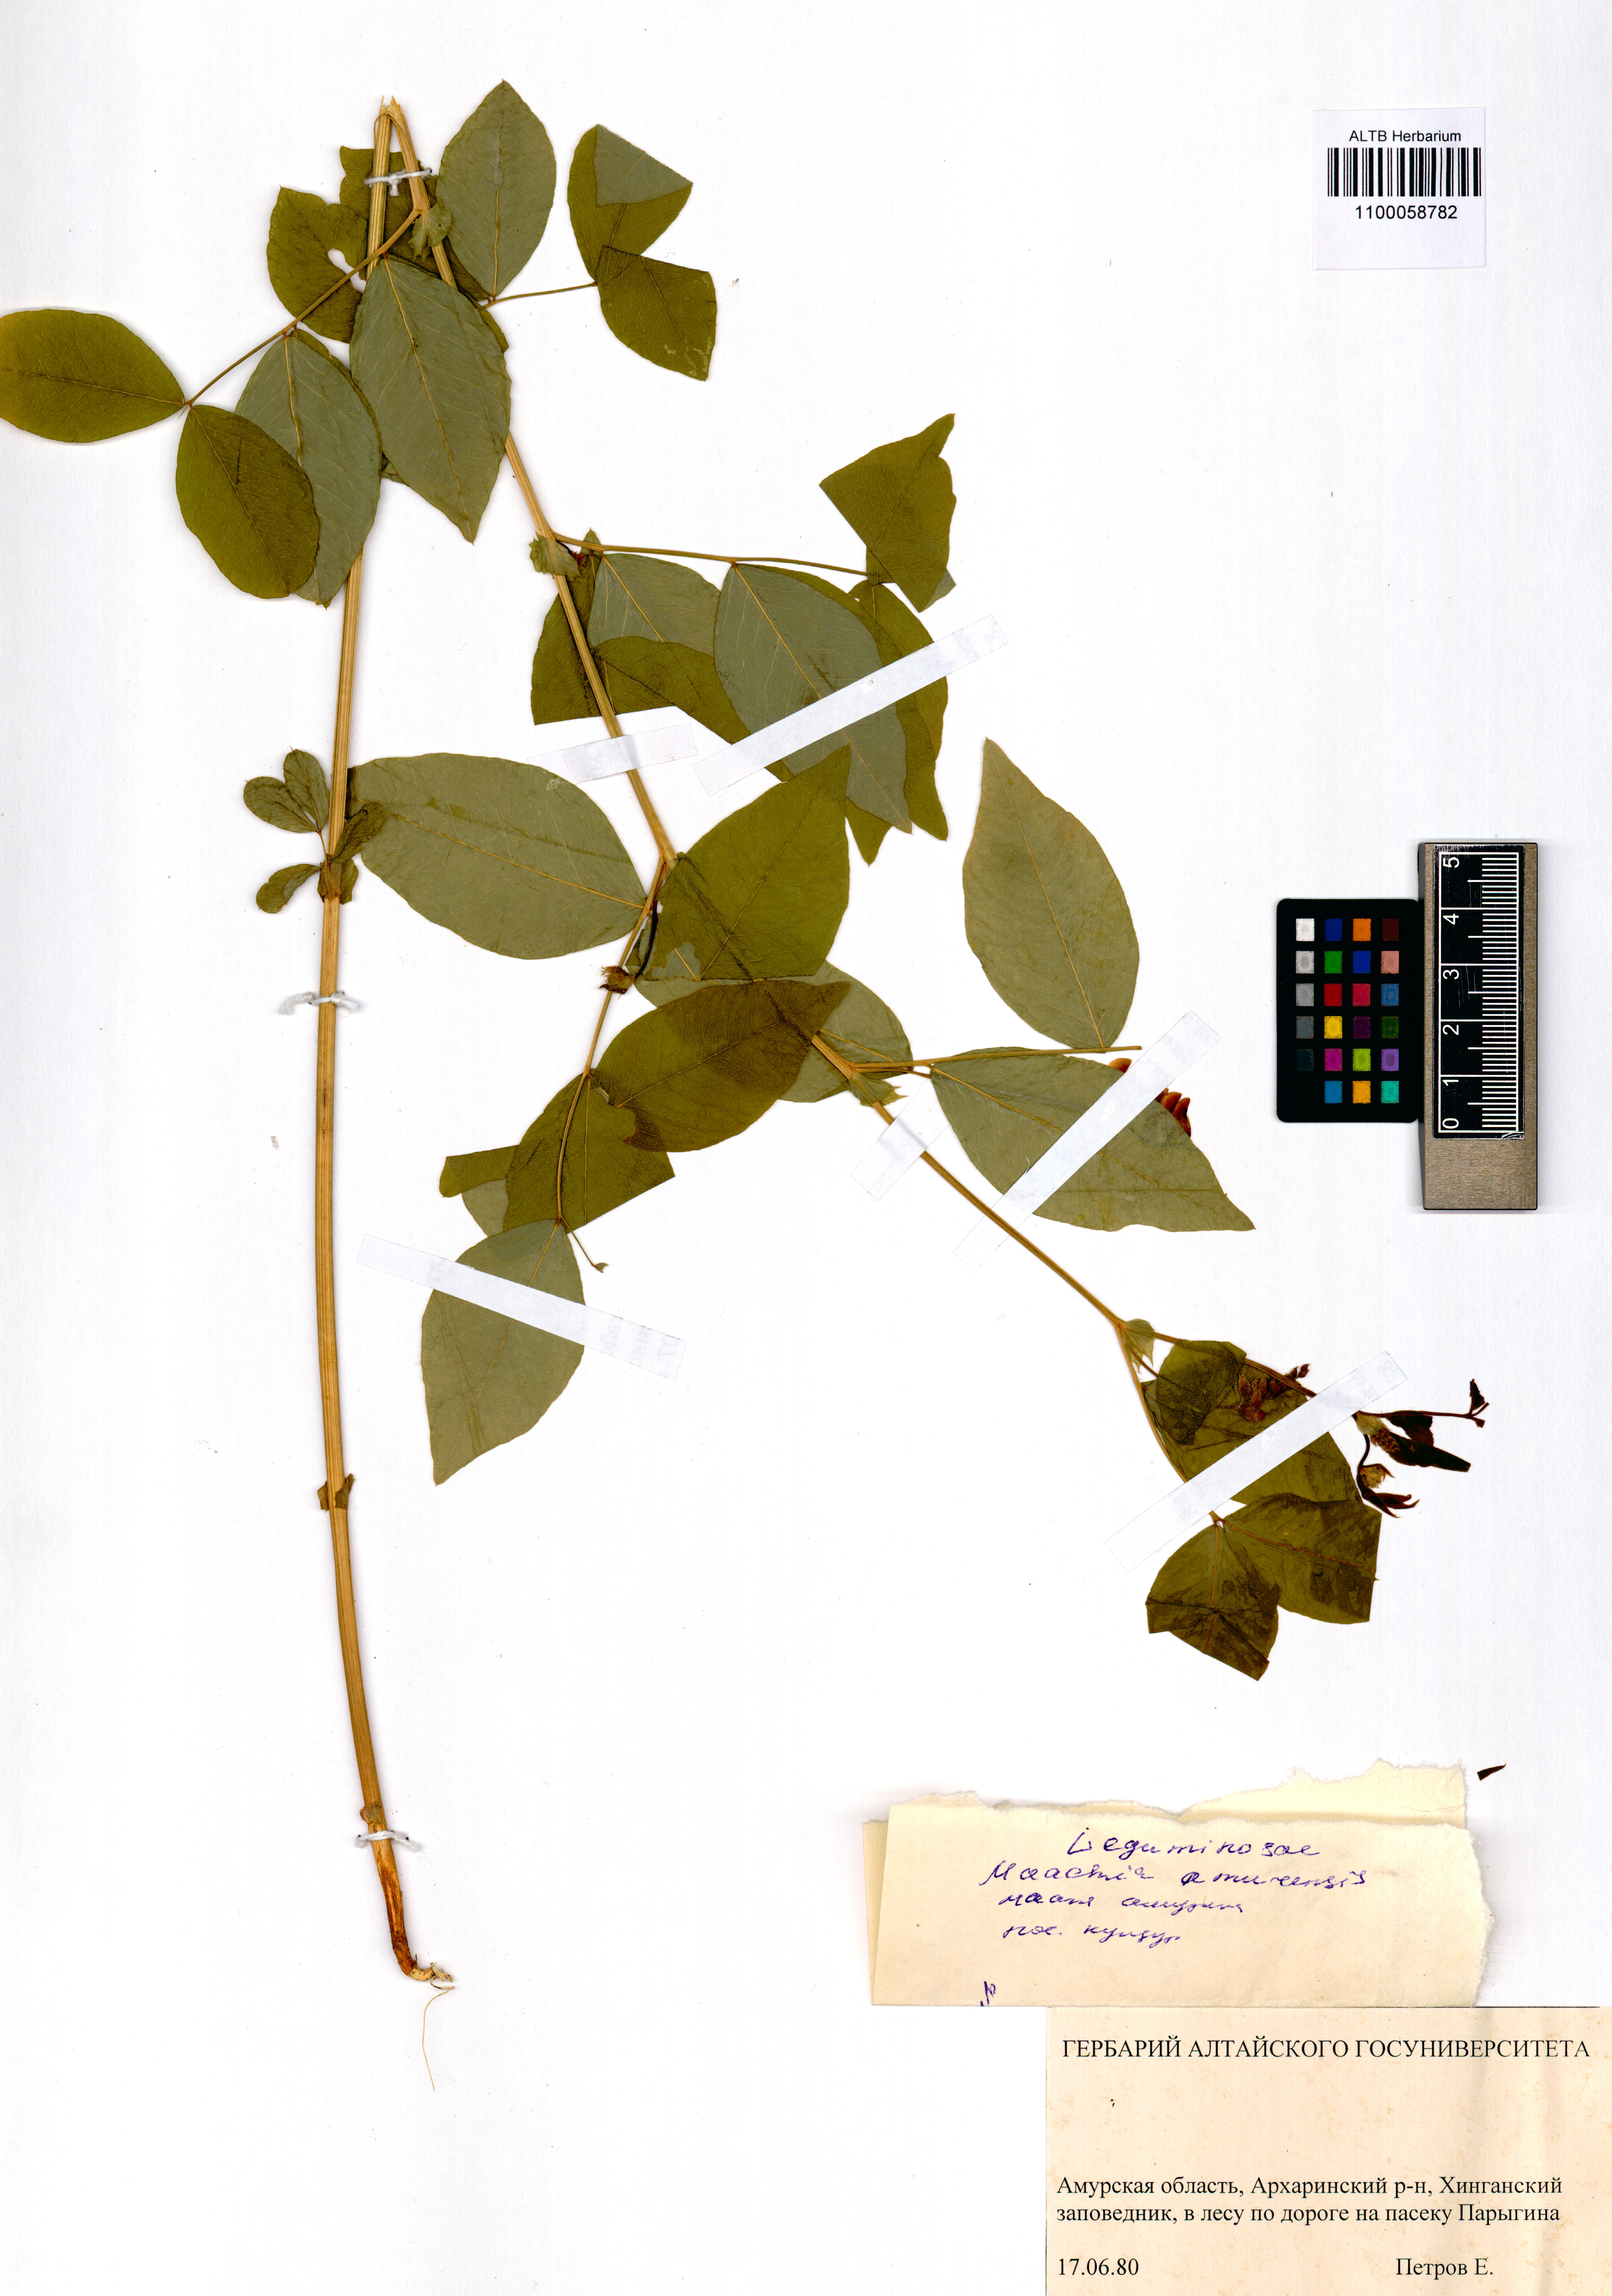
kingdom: Plantae
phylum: Tracheophyta
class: Magnoliopsida
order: Fabales
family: Fabaceae
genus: Maackia
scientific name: Maackia amurensis
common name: Amur maackia
